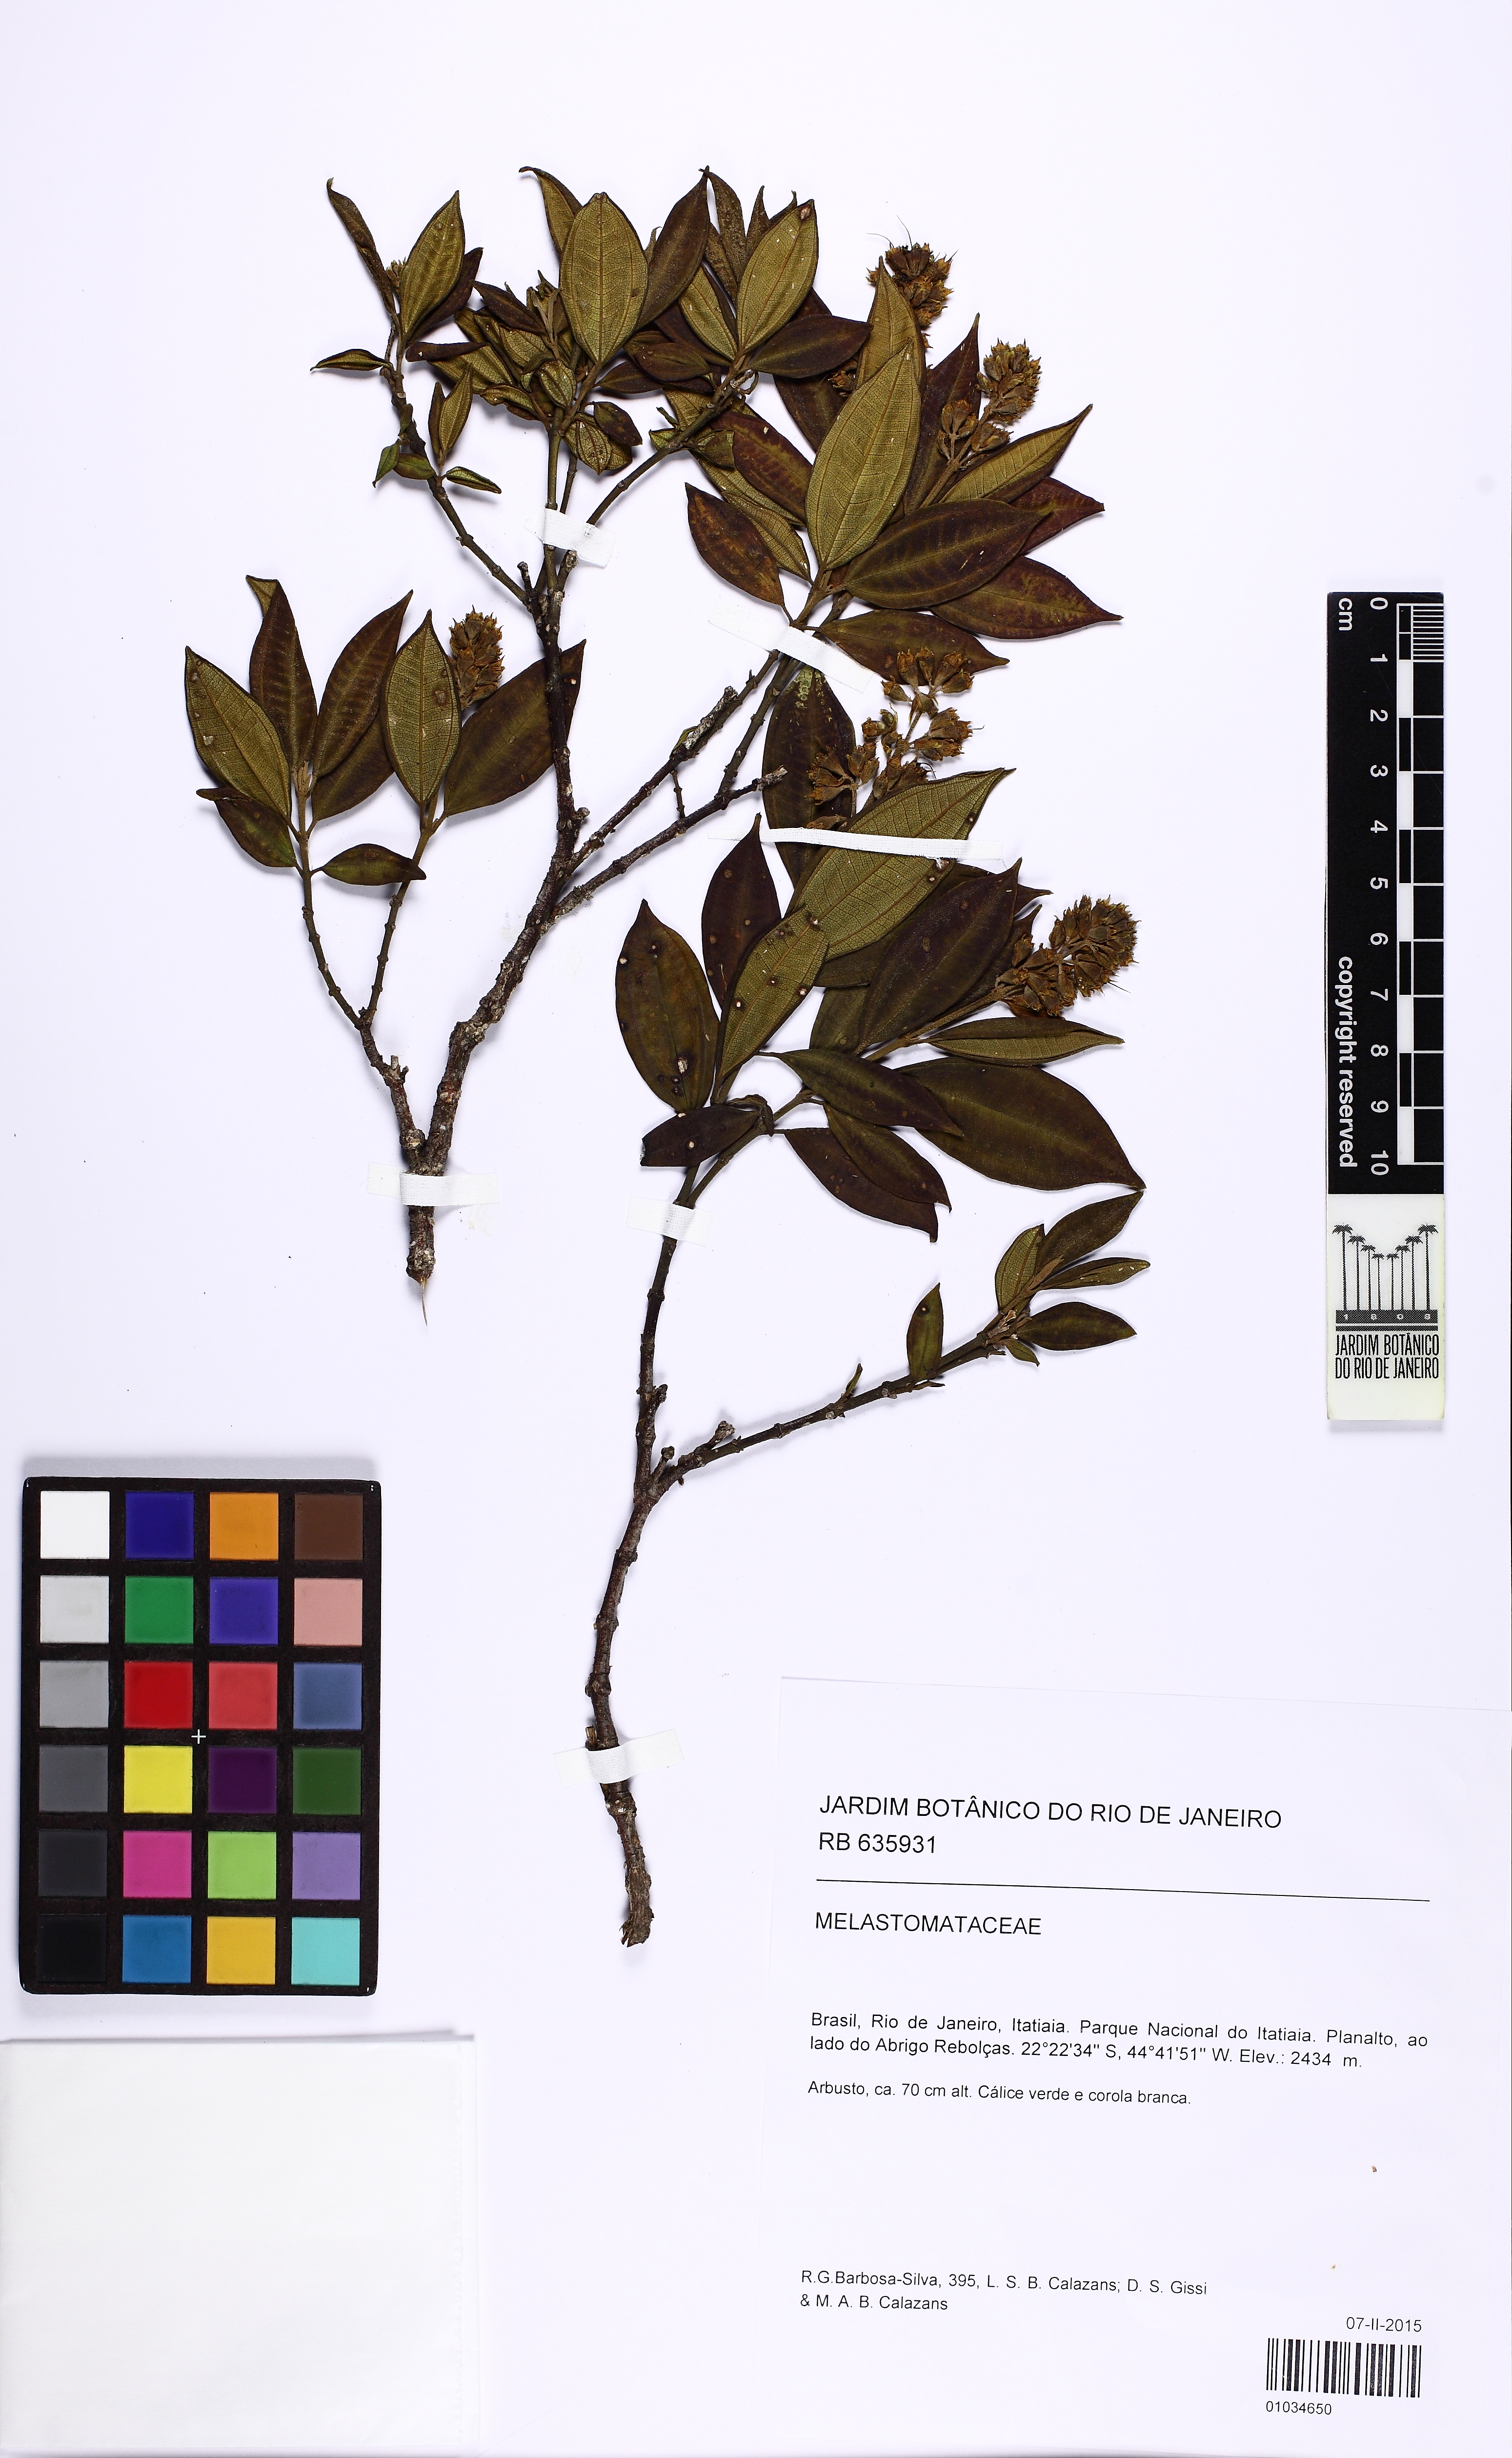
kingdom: Plantae
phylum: Tracheophyta
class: Magnoliopsida
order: Myrtales
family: Melastomataceae
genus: Miconia
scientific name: Miconia
